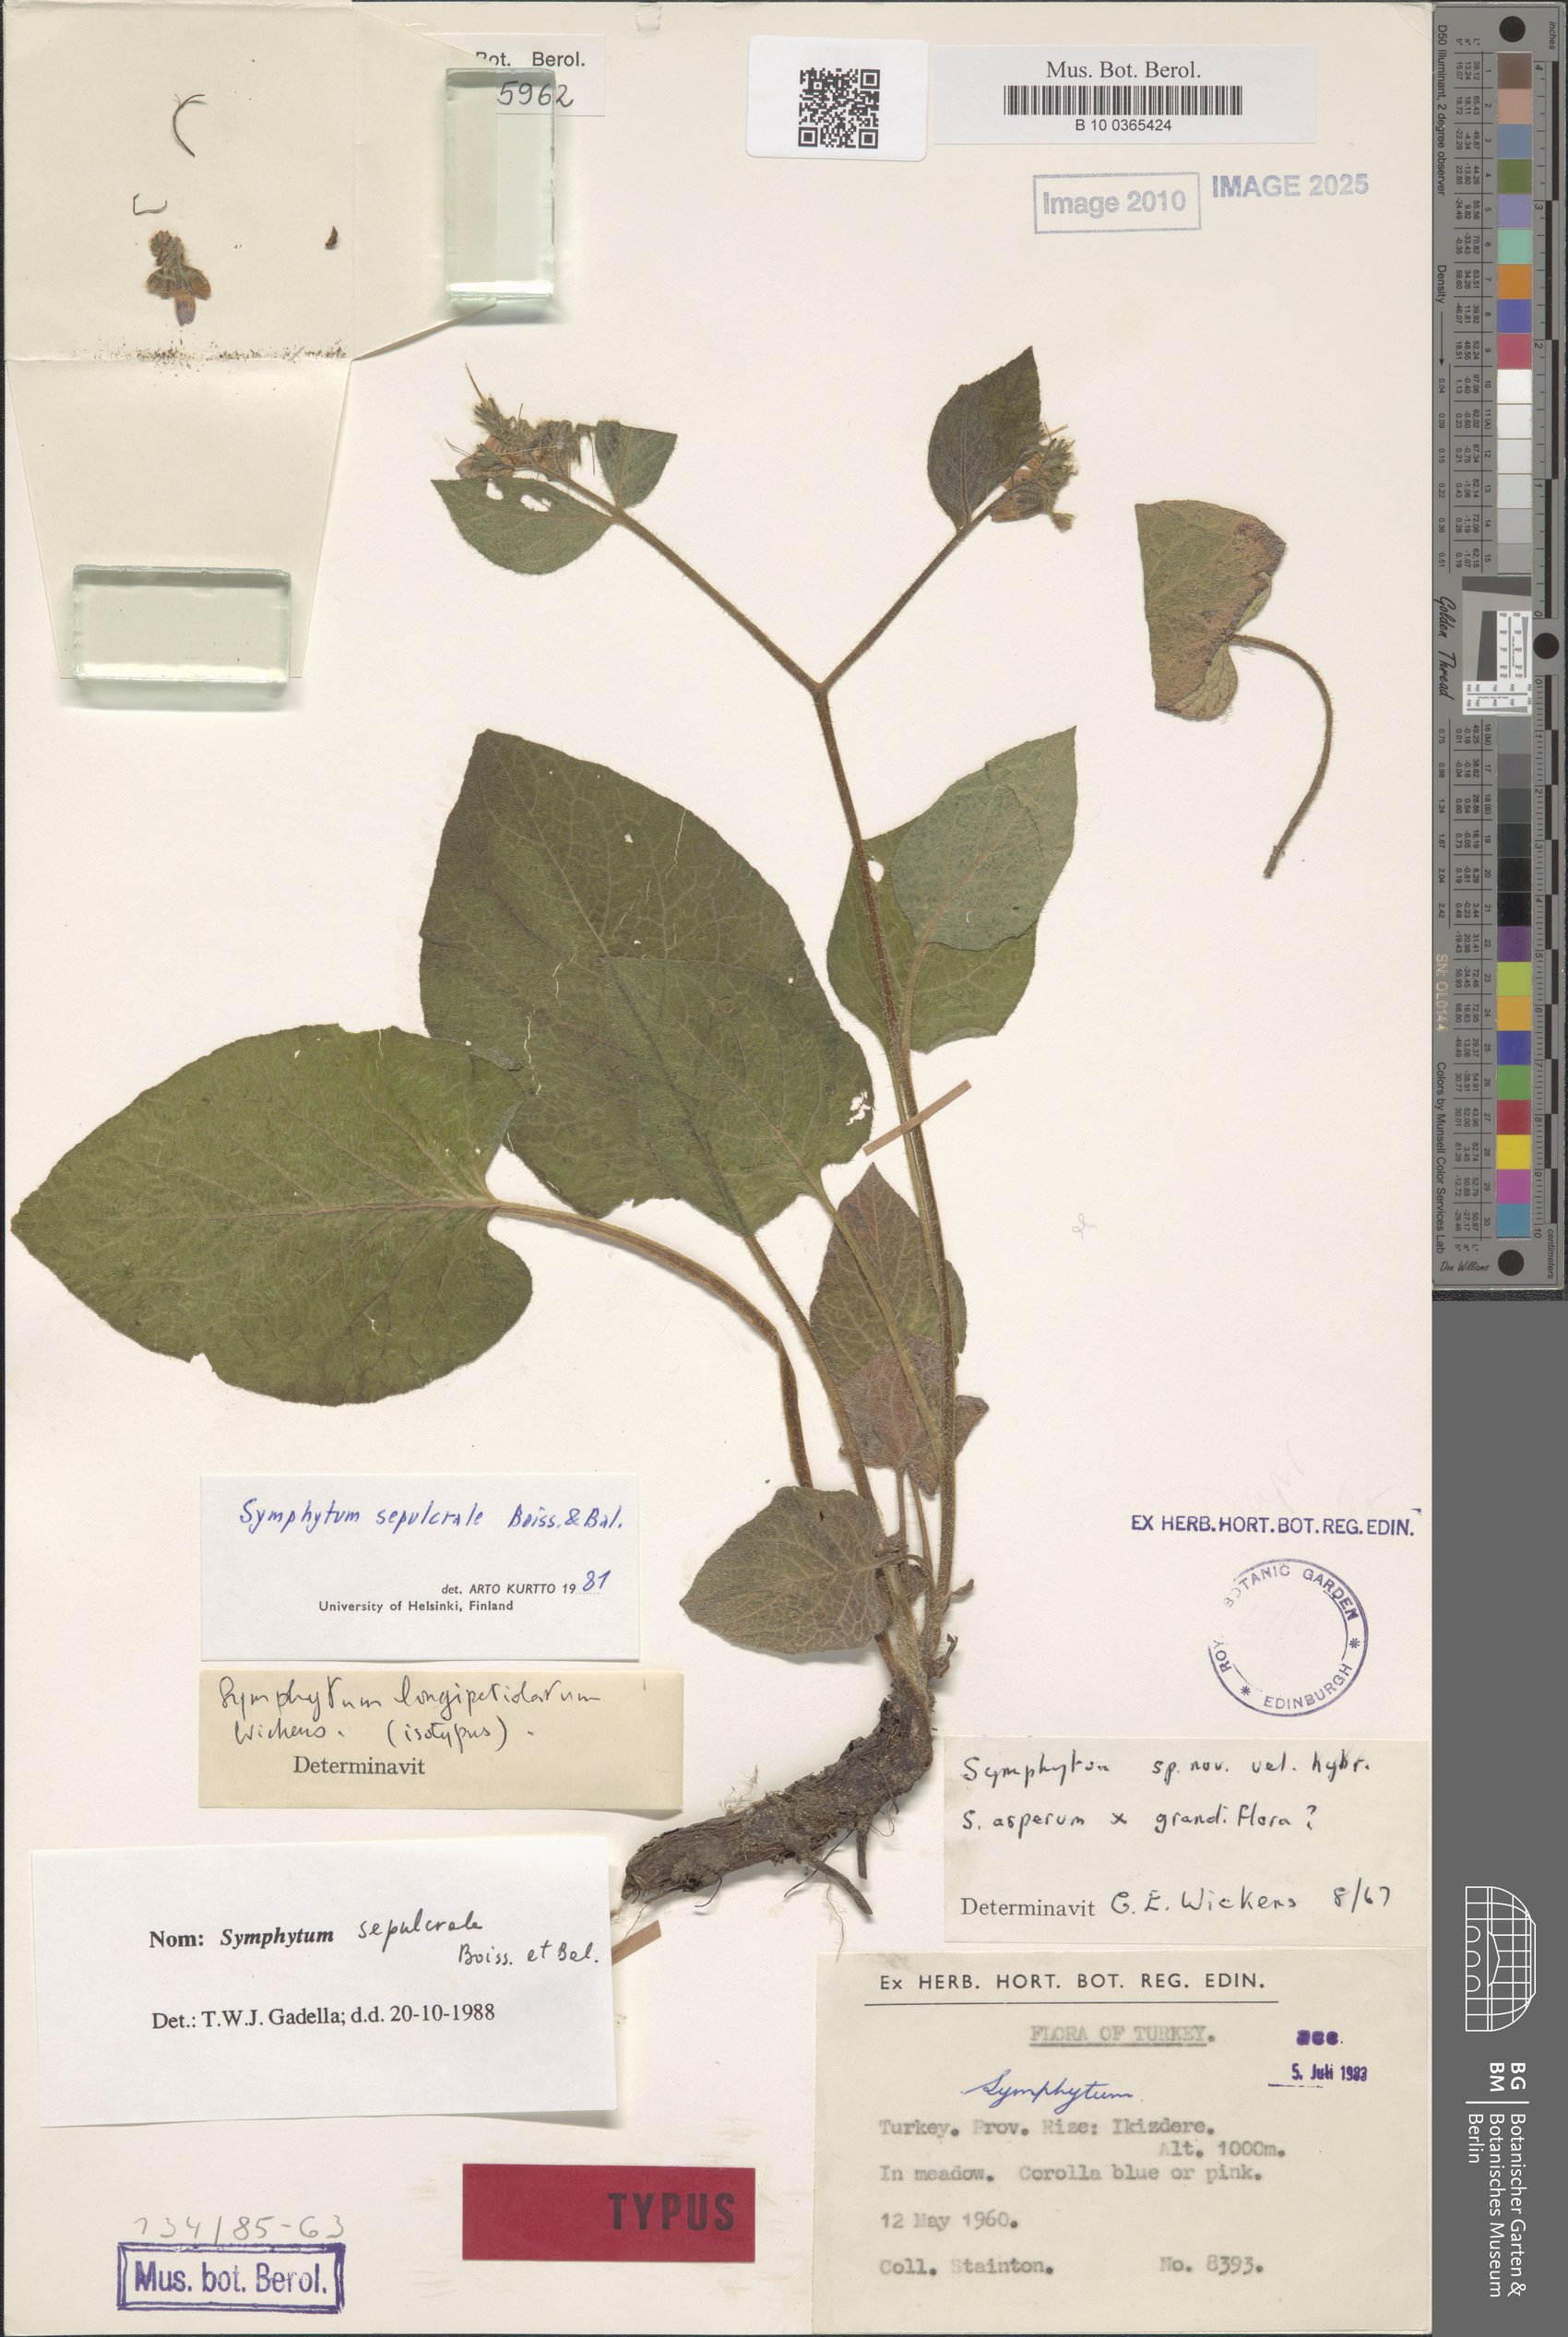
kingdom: Plantae
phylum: Tracheophyta
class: Magnoliopsida
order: Boraginales
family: Boraginaceae
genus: Symphytum
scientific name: Symphytum sylvaticum
